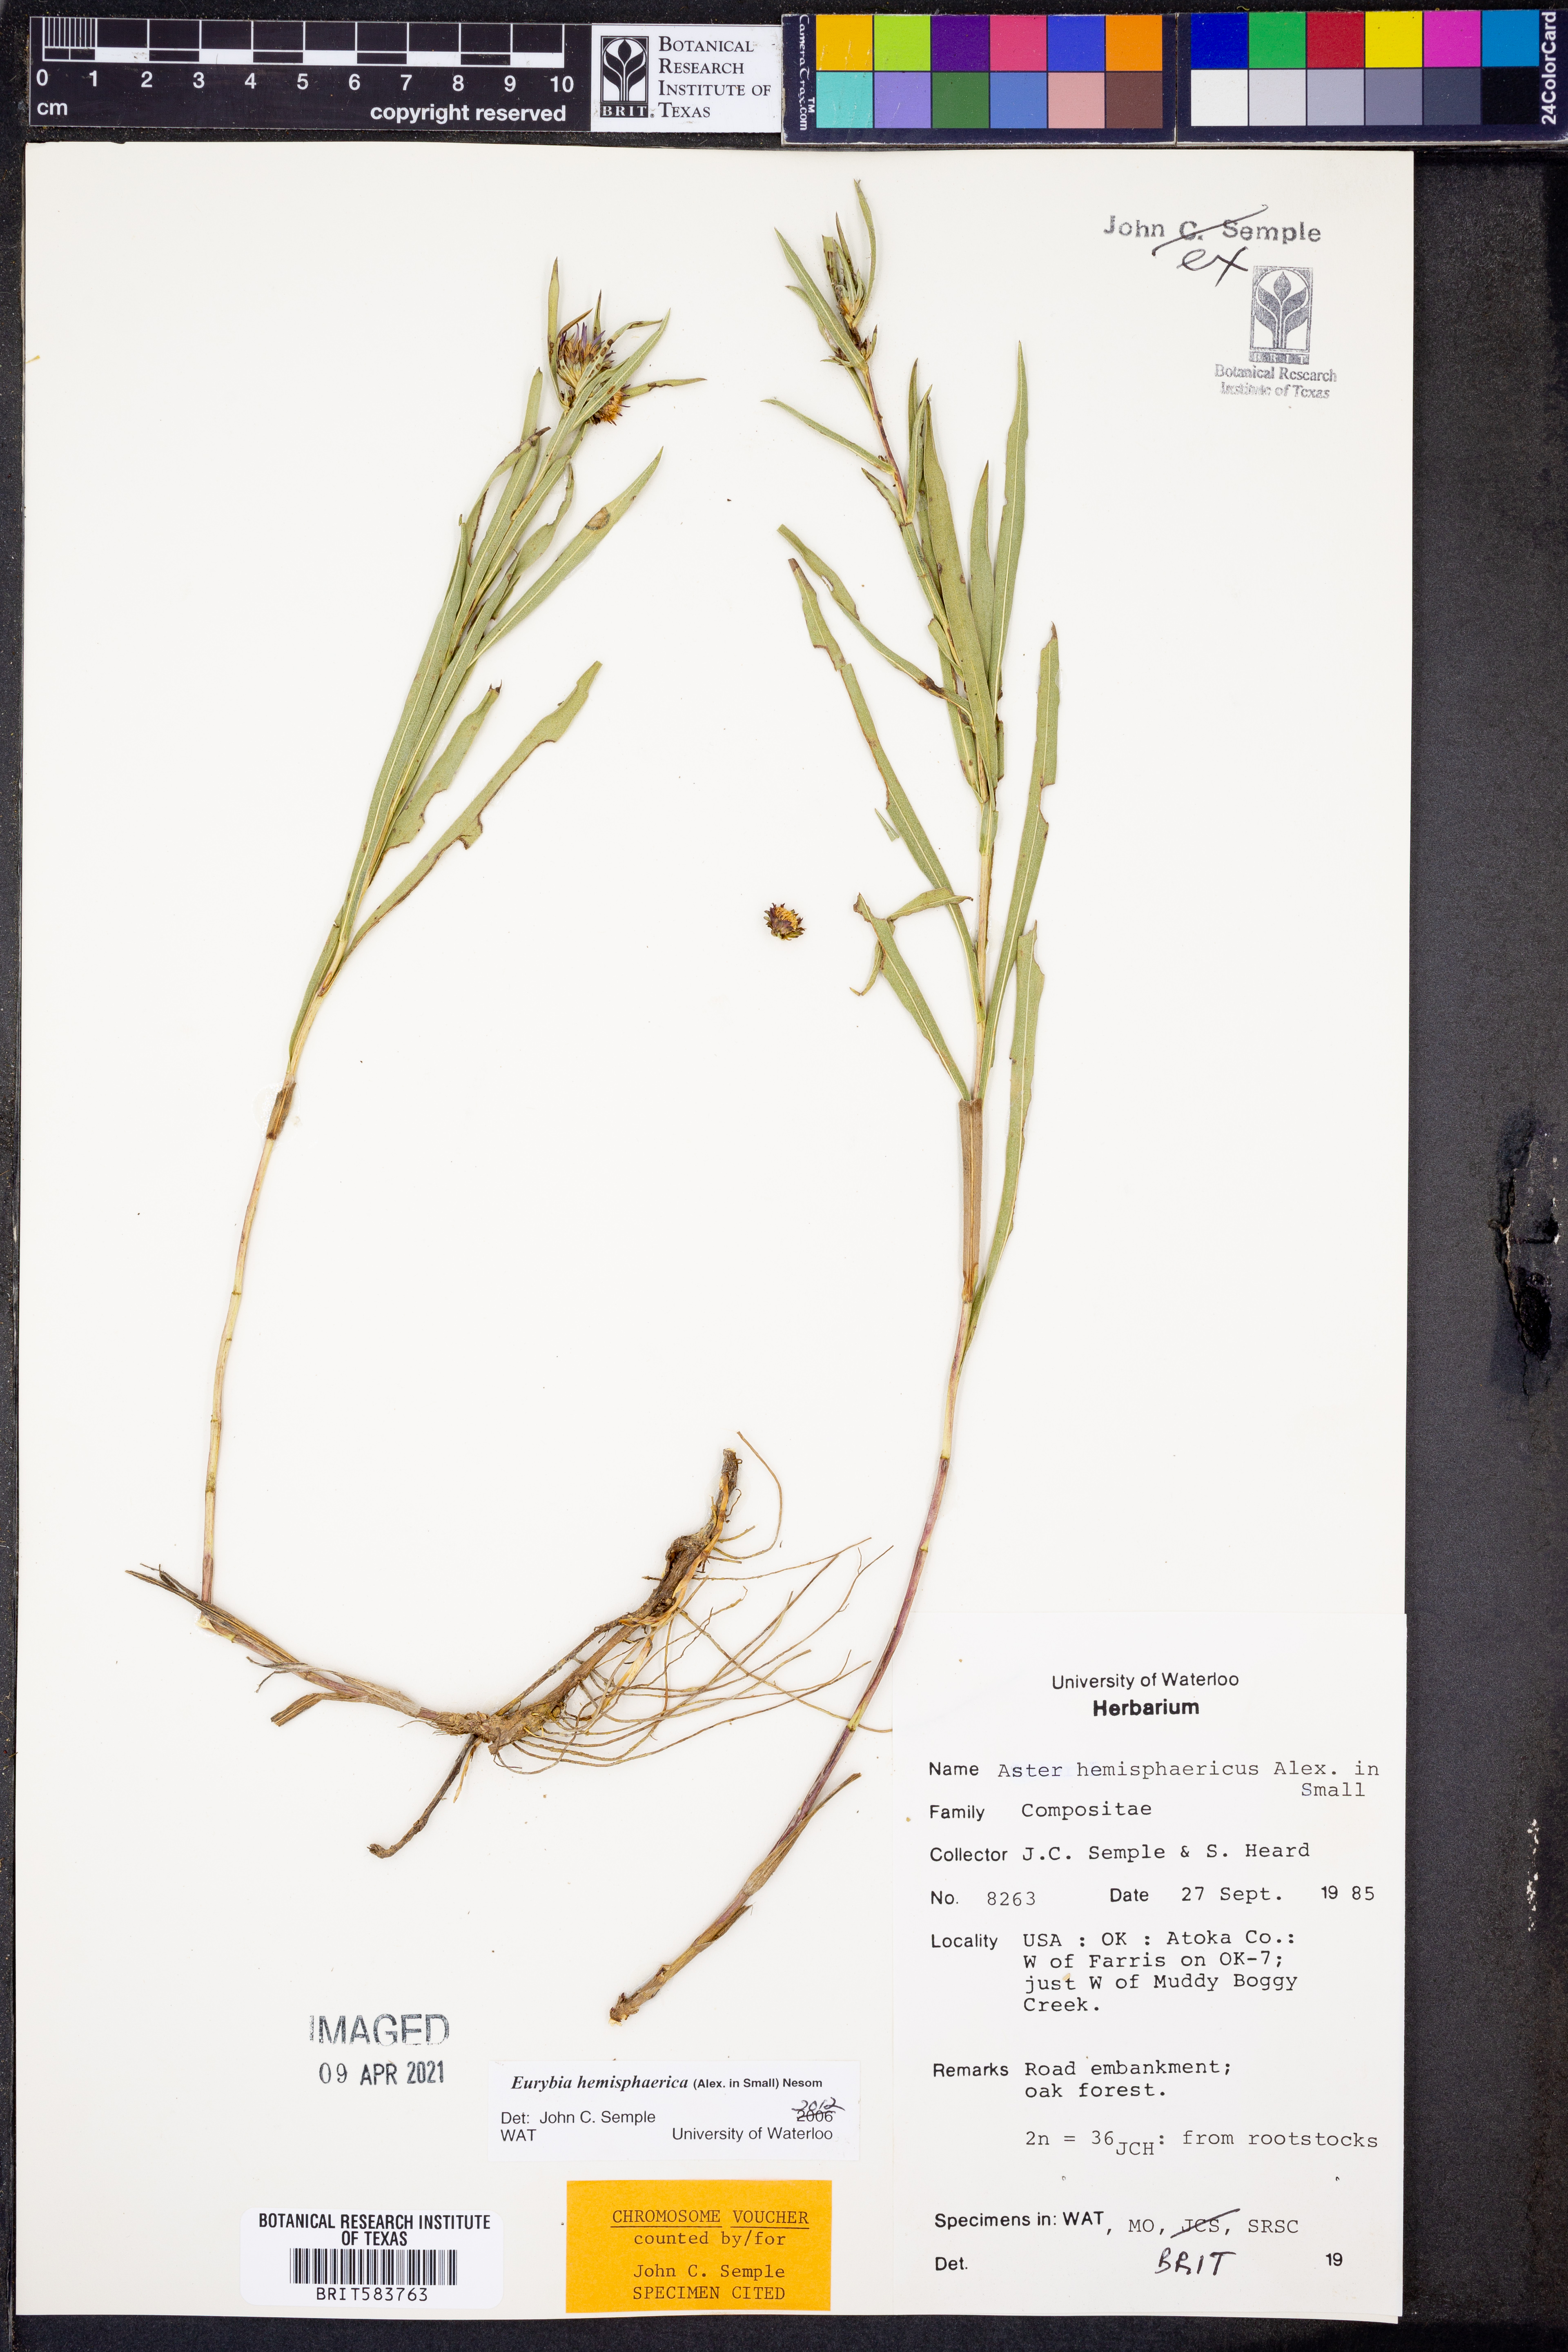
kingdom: Plantae
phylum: Tracheophyta
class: Magnoliopsida
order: Asterales
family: Asteraceae
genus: Eurybia
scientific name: Eurybia hemispherica
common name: Showy aster
